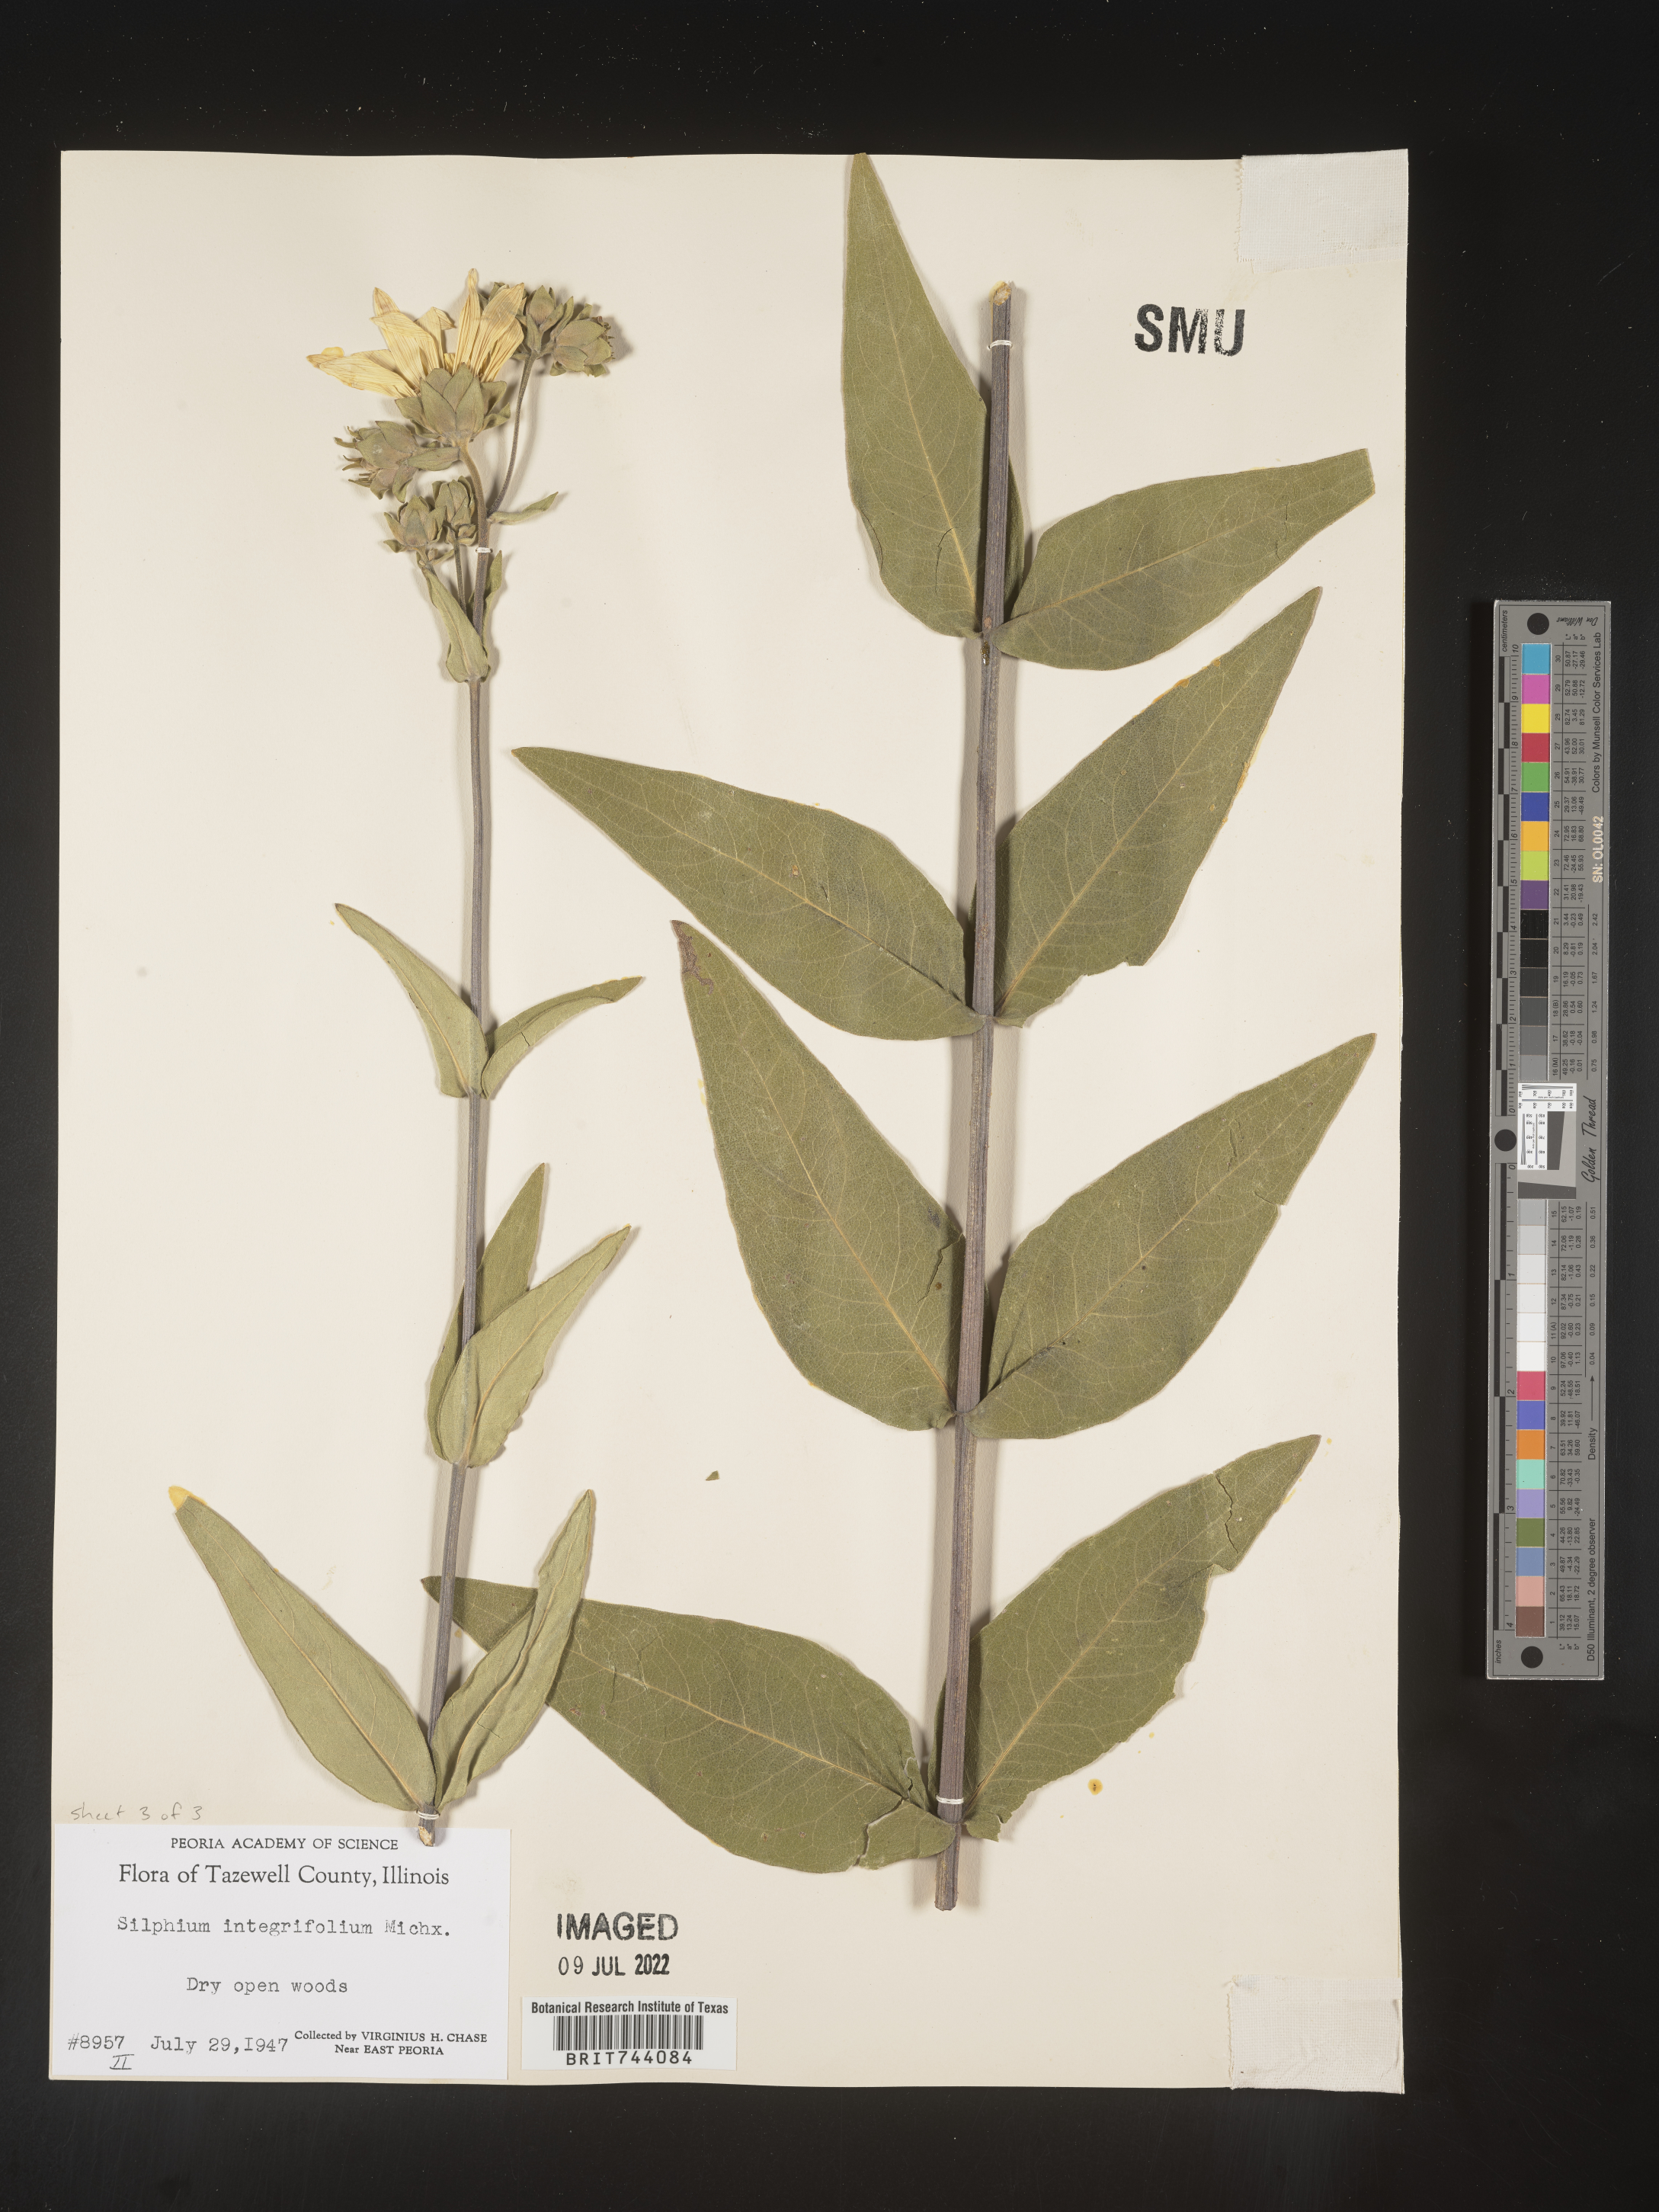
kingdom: Plantae
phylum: Tracheophyta
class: Magnoliopsida
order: Asterales
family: Asteraceae
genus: Silphium
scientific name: Silphium integrifolium
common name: Whole-leaf rosinweed
